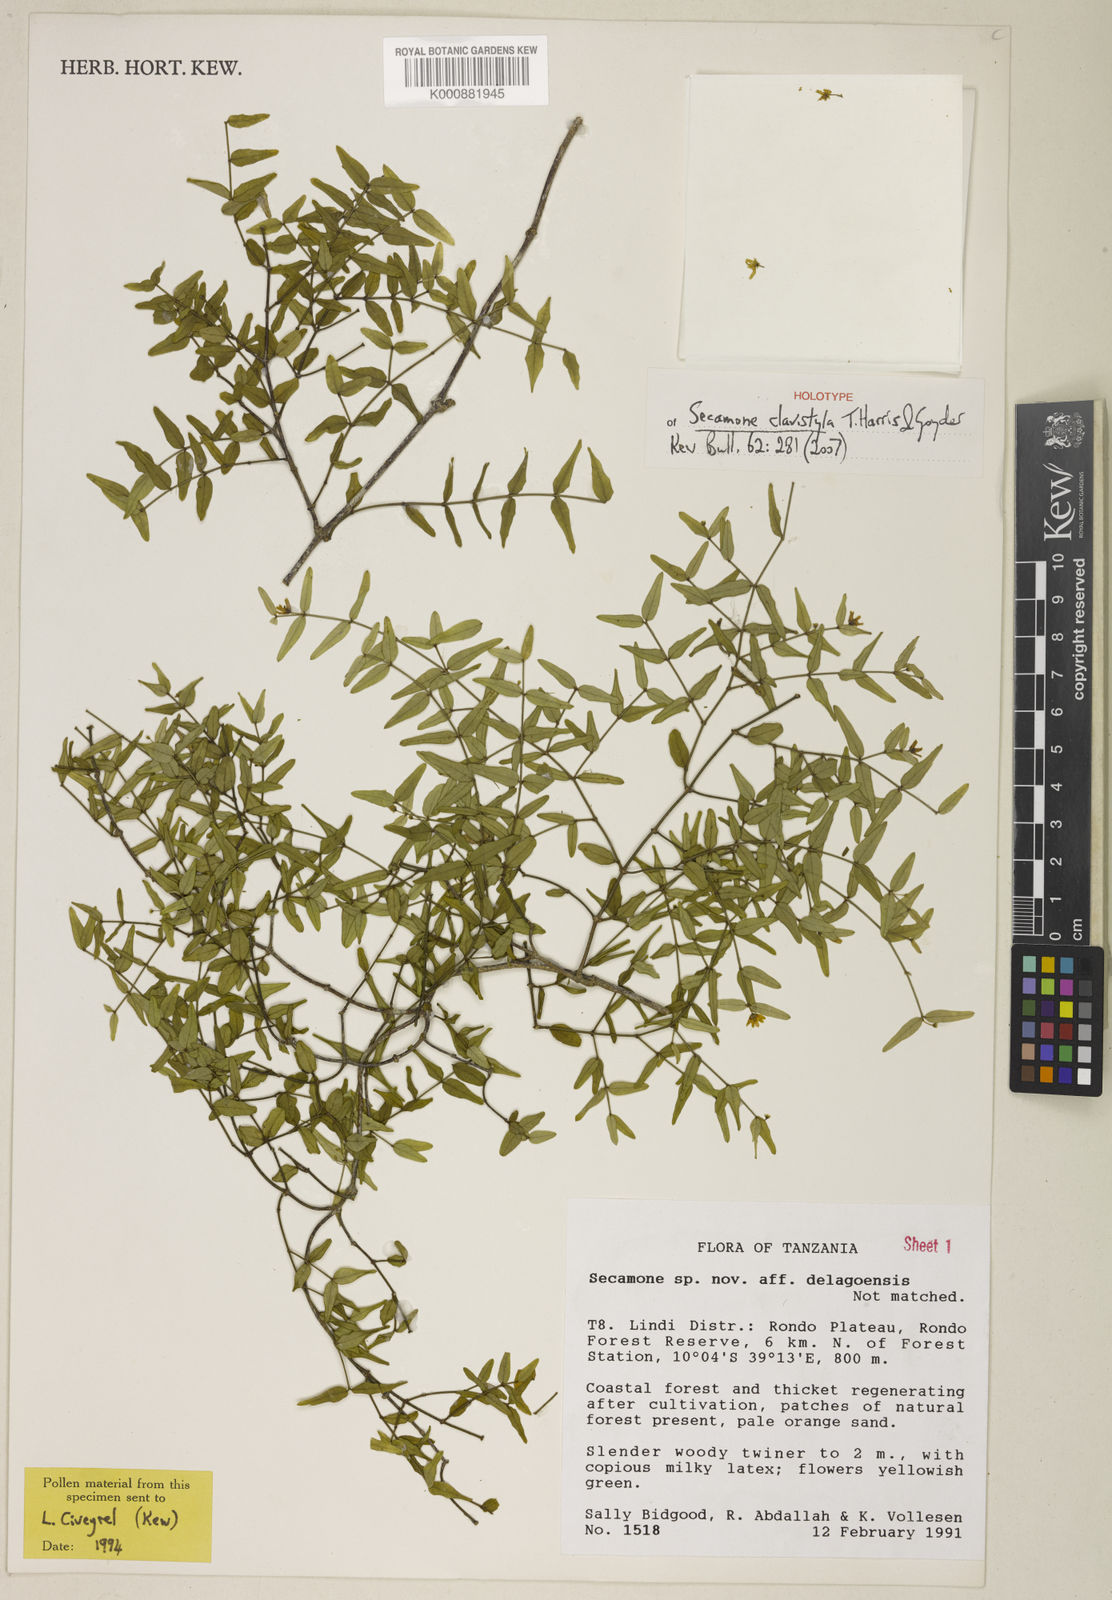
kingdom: Plantae
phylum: Tracheophyta
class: Magnoliopsida
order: Gentianales
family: Apocynaceae
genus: Secamone
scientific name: Secamone clavistyla
